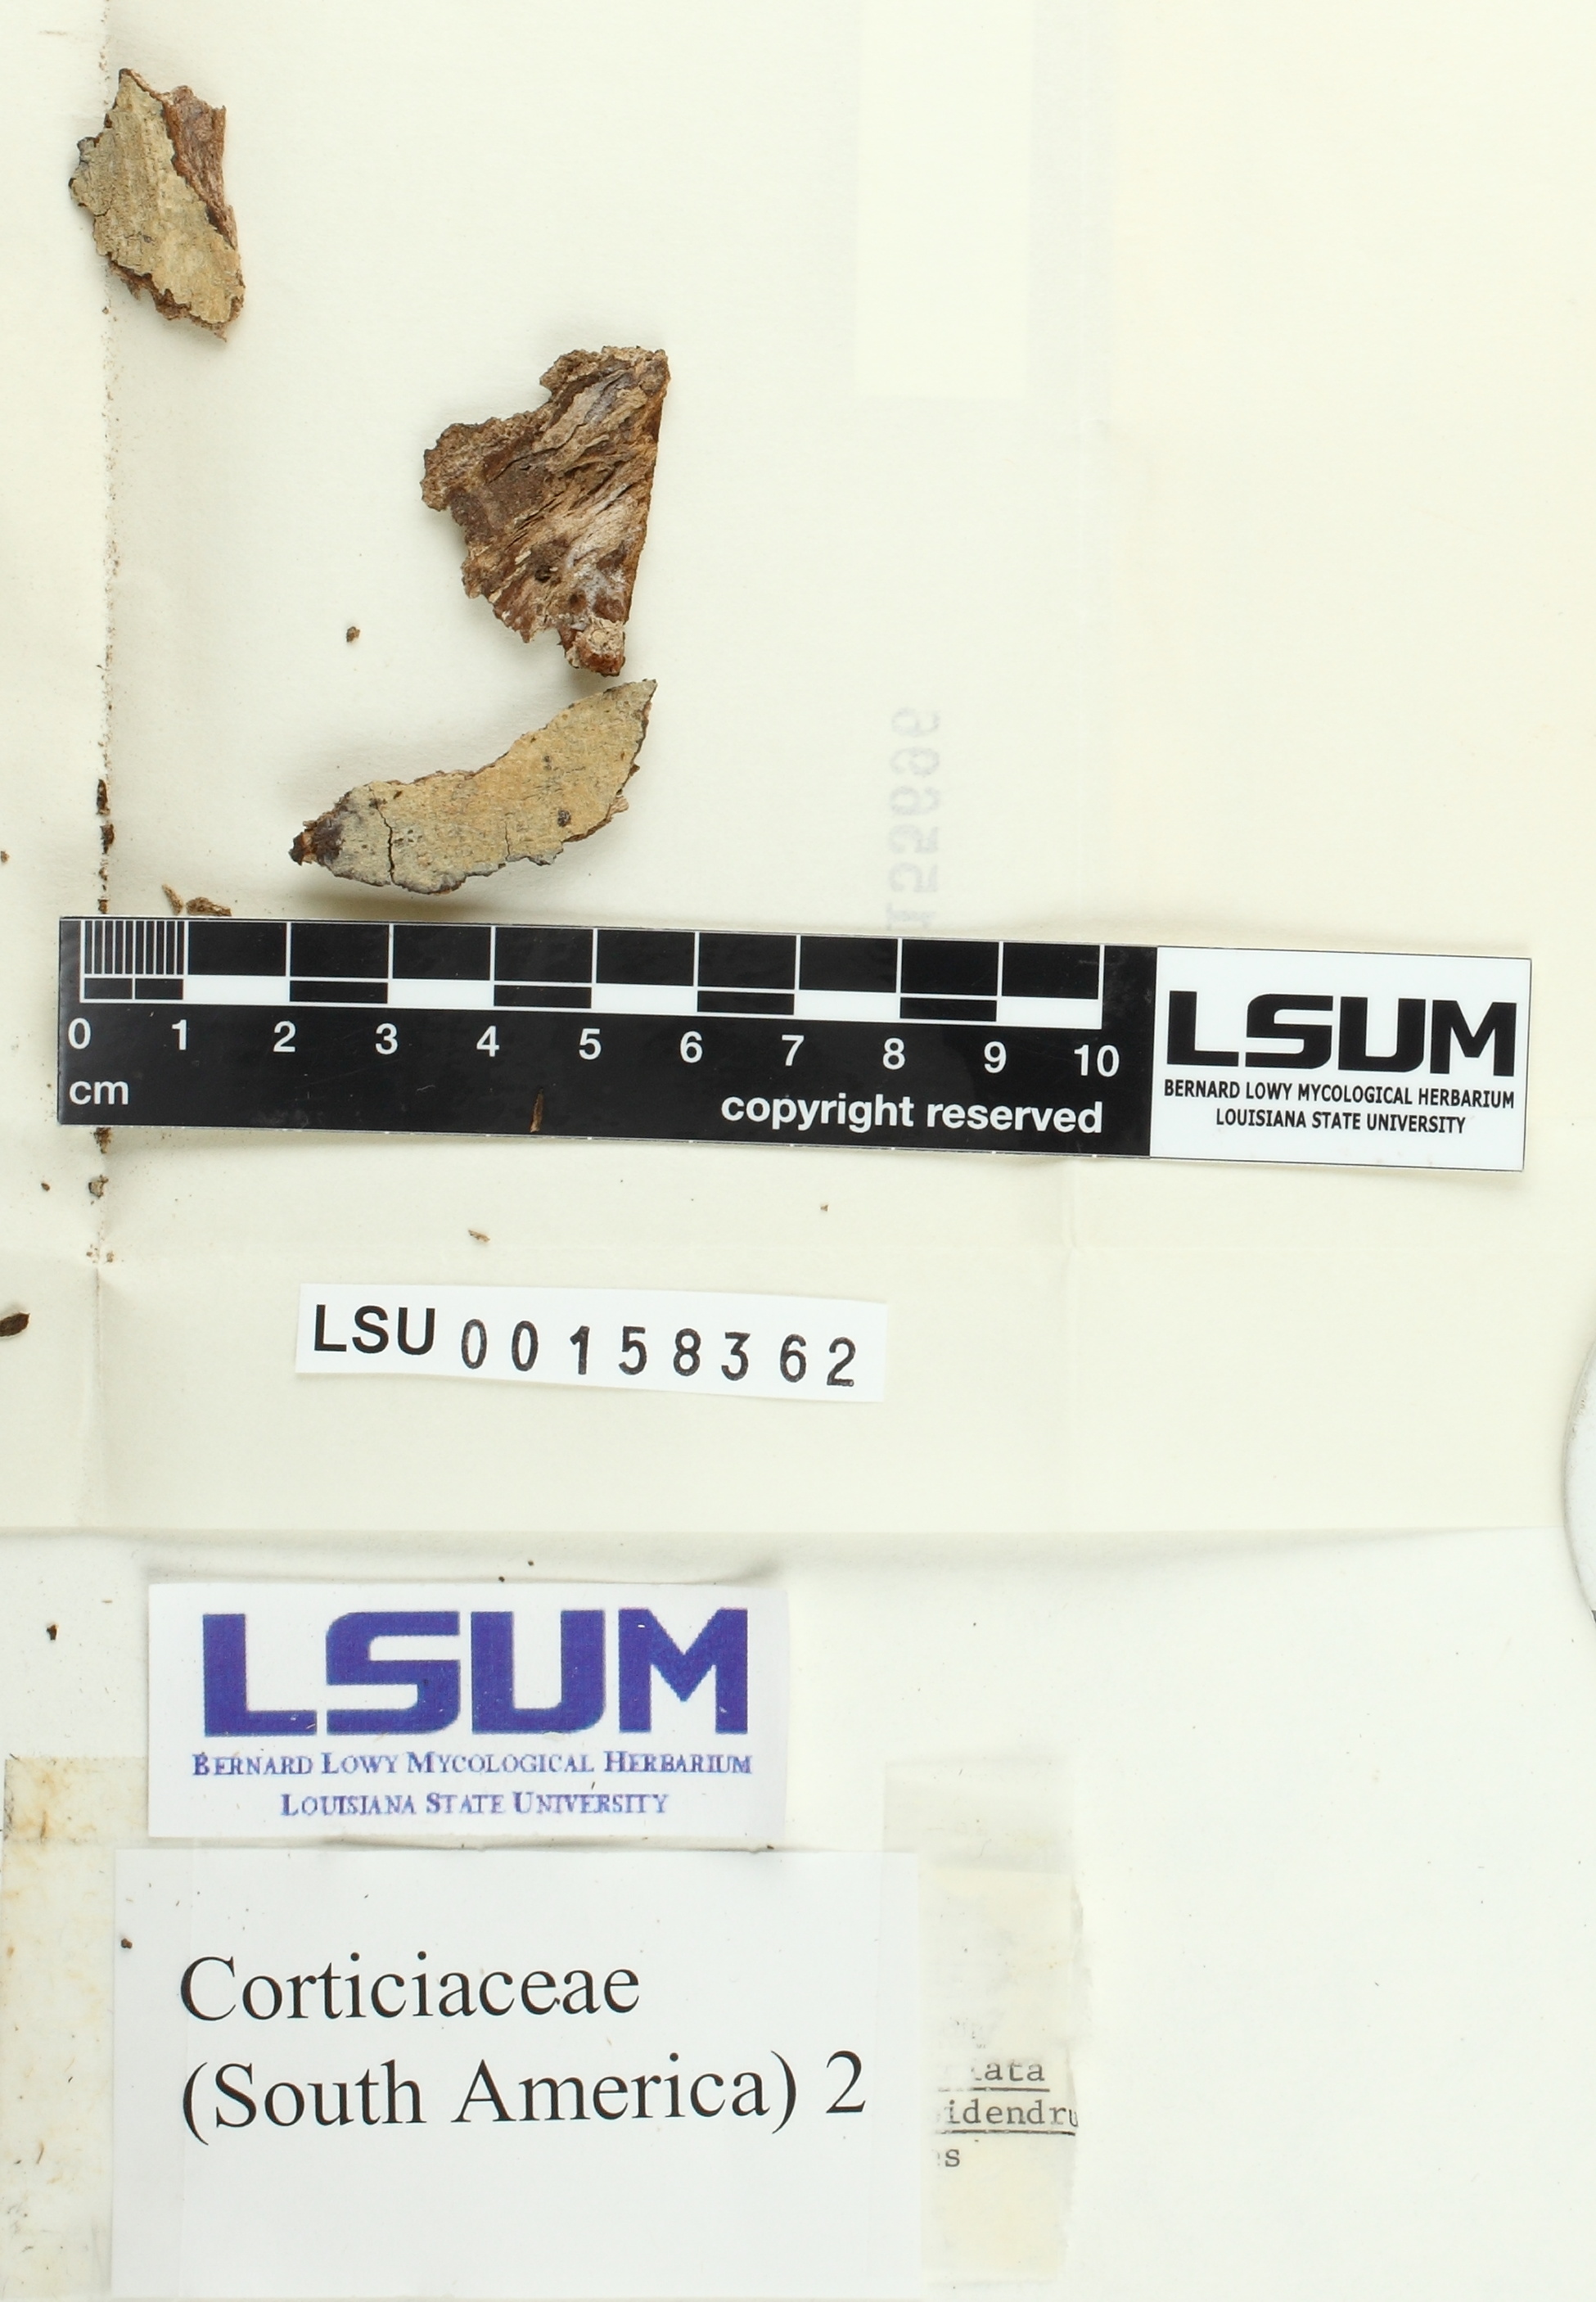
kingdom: Fungi
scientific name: Fungi
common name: Fungi
